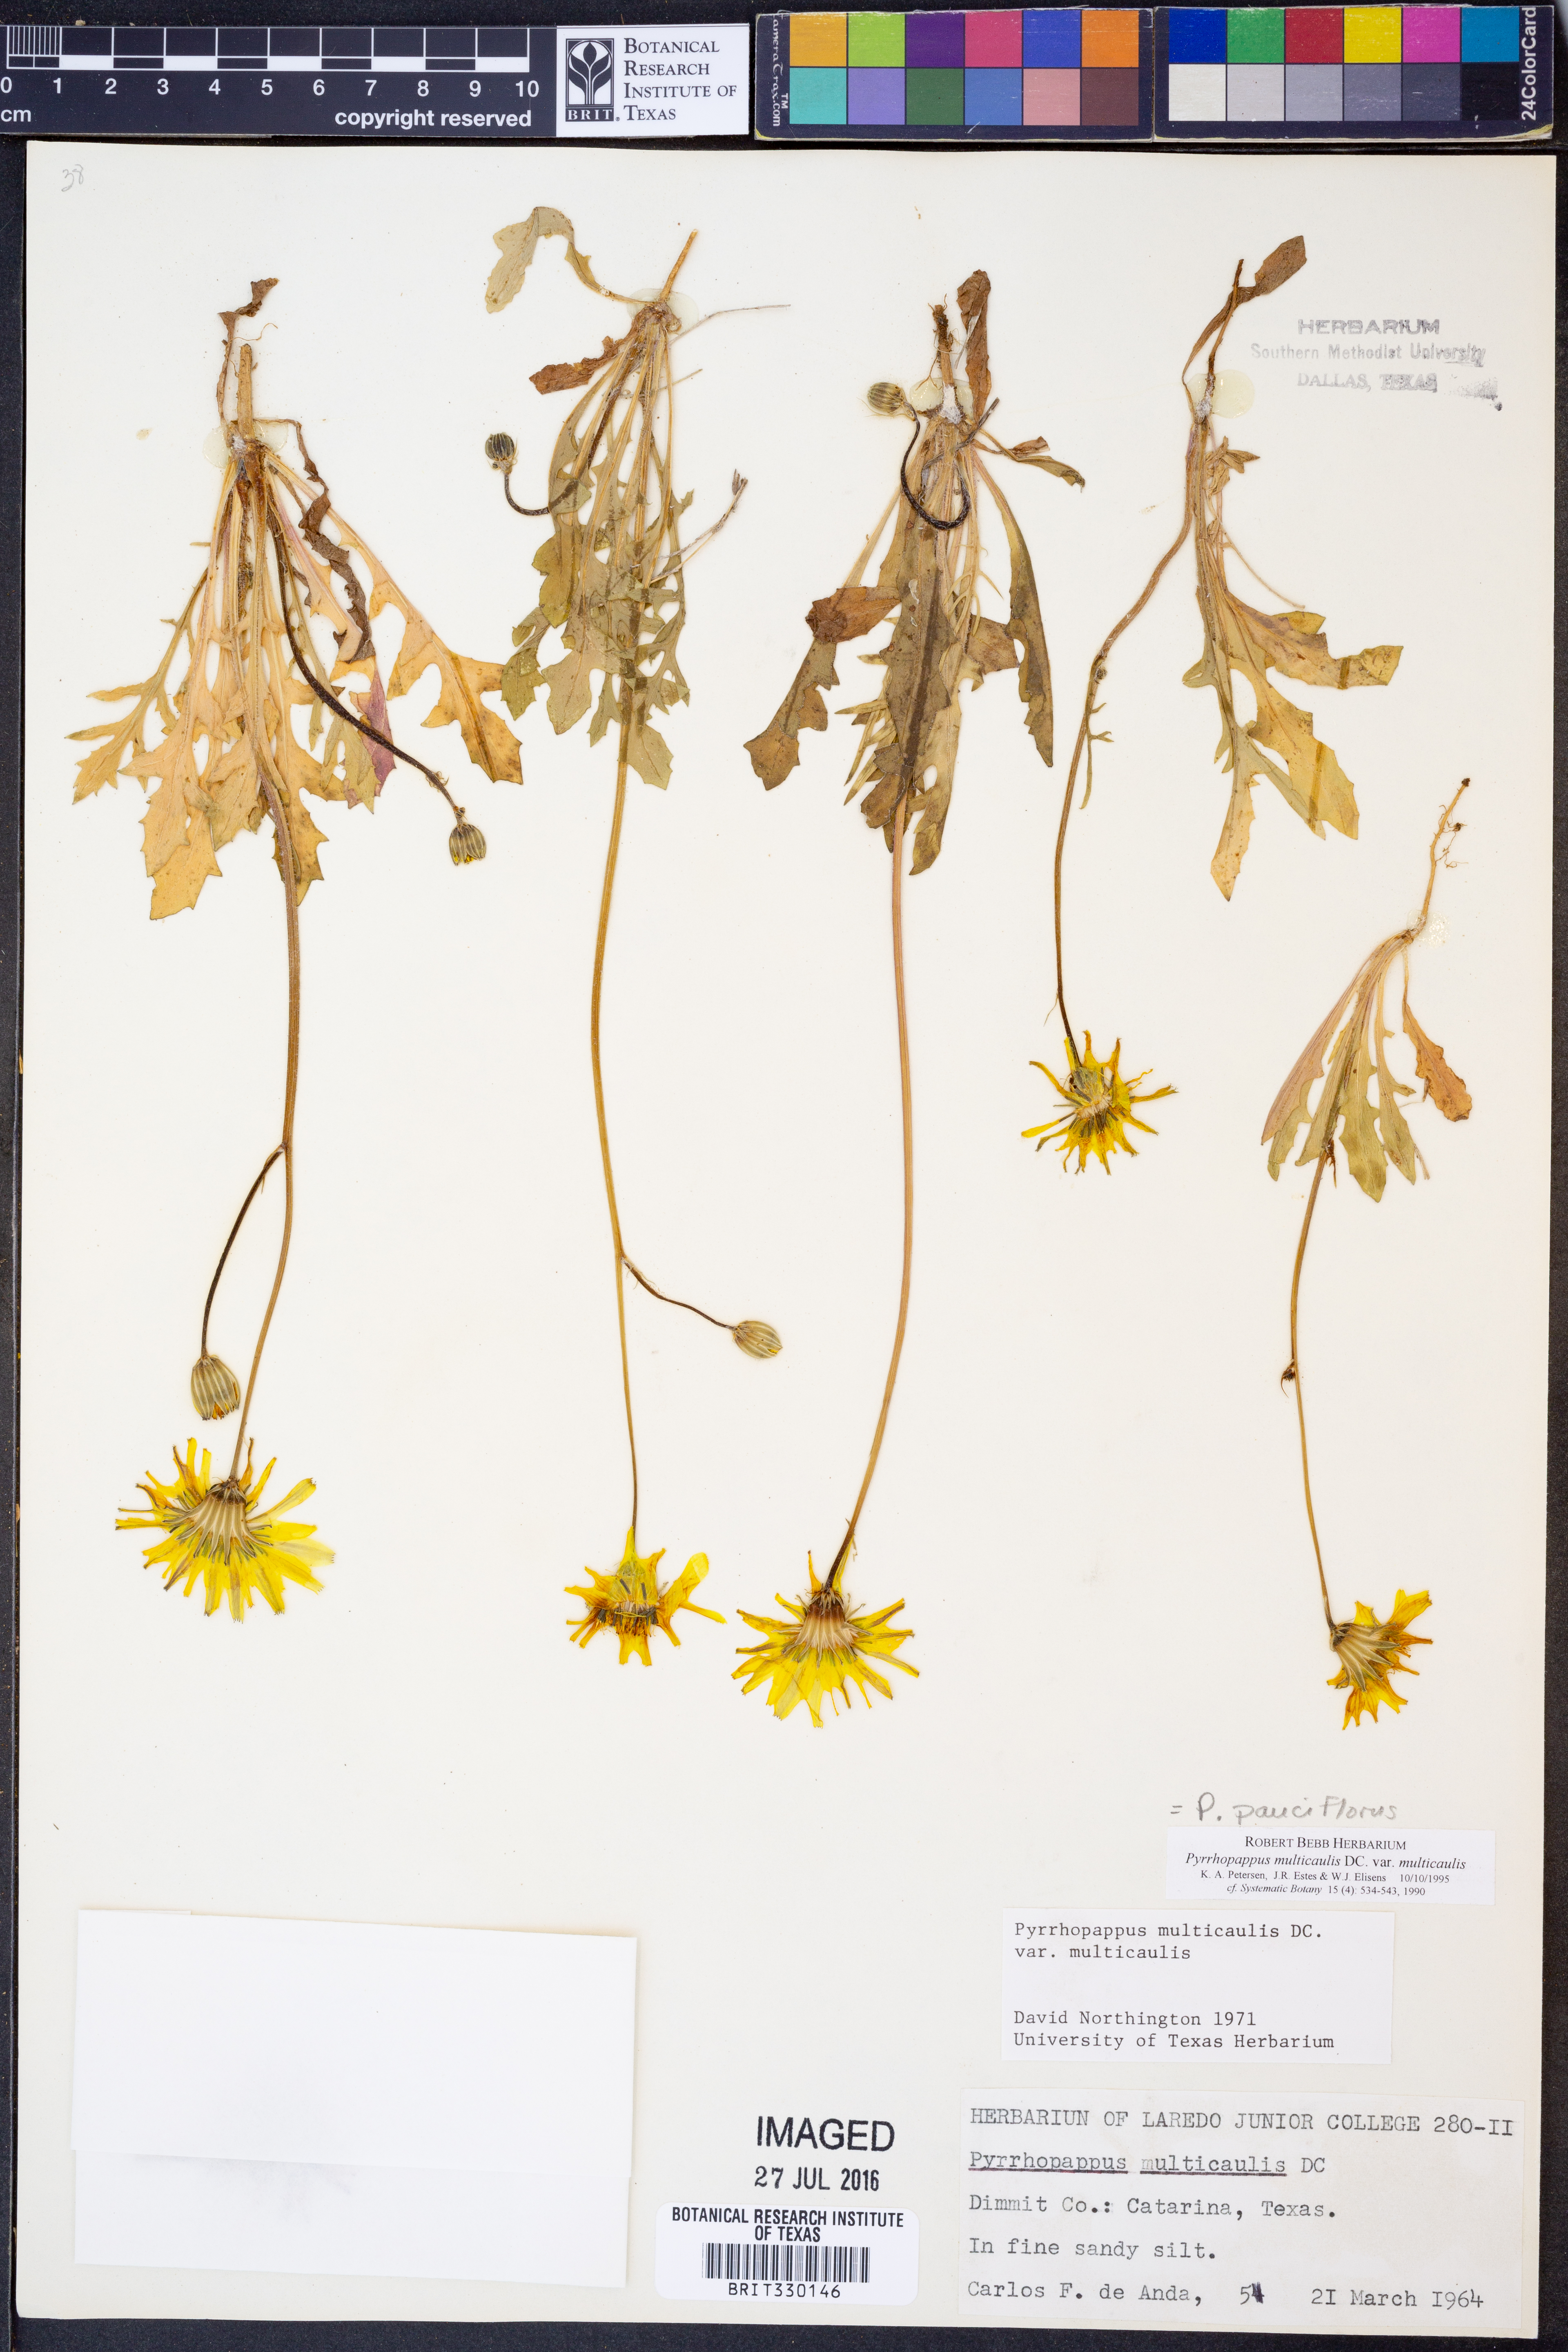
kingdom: Plantae
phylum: Tracheophyta
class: Magnoliopsida
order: Asterales
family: Asteraceae
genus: Pyrrhopappus
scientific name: Pyrrhopappus pauciflorus
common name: Texas false dandelion
